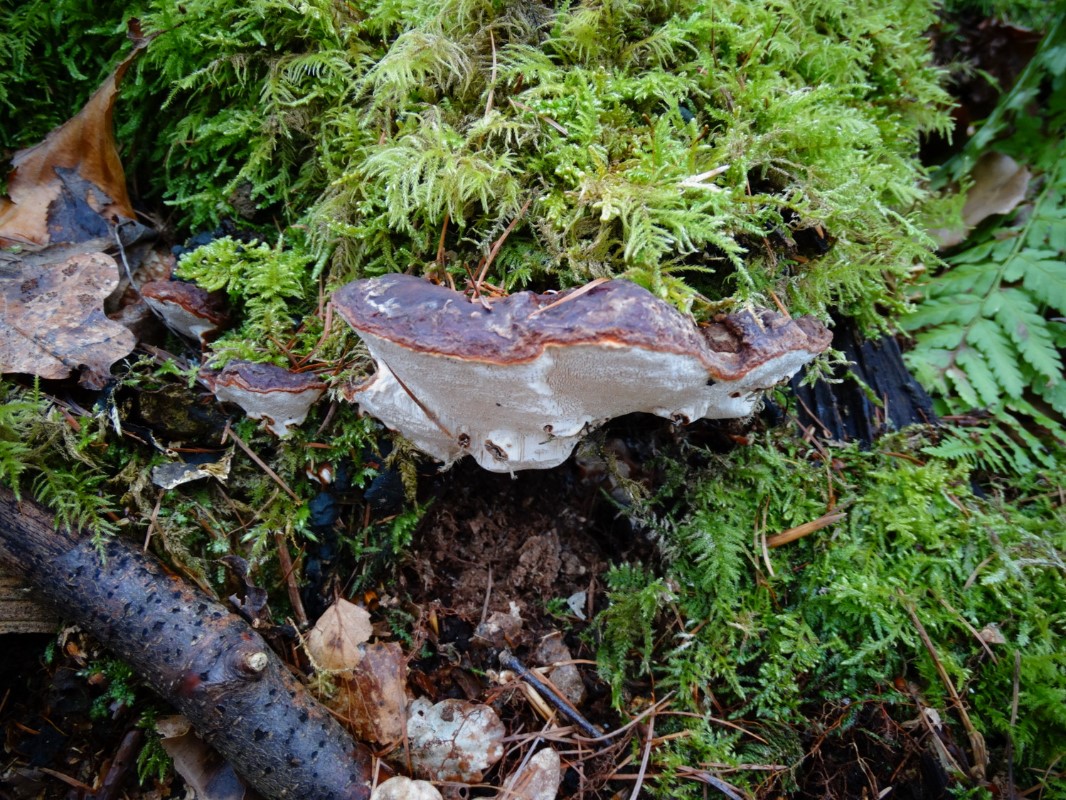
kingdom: Fungi
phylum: Basidiomycota
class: Agaricomycetes
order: Russulales
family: Bondarzewiaceae
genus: Heterobasidion
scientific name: Heterobasidion annosum
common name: almindelig rodfordærver
